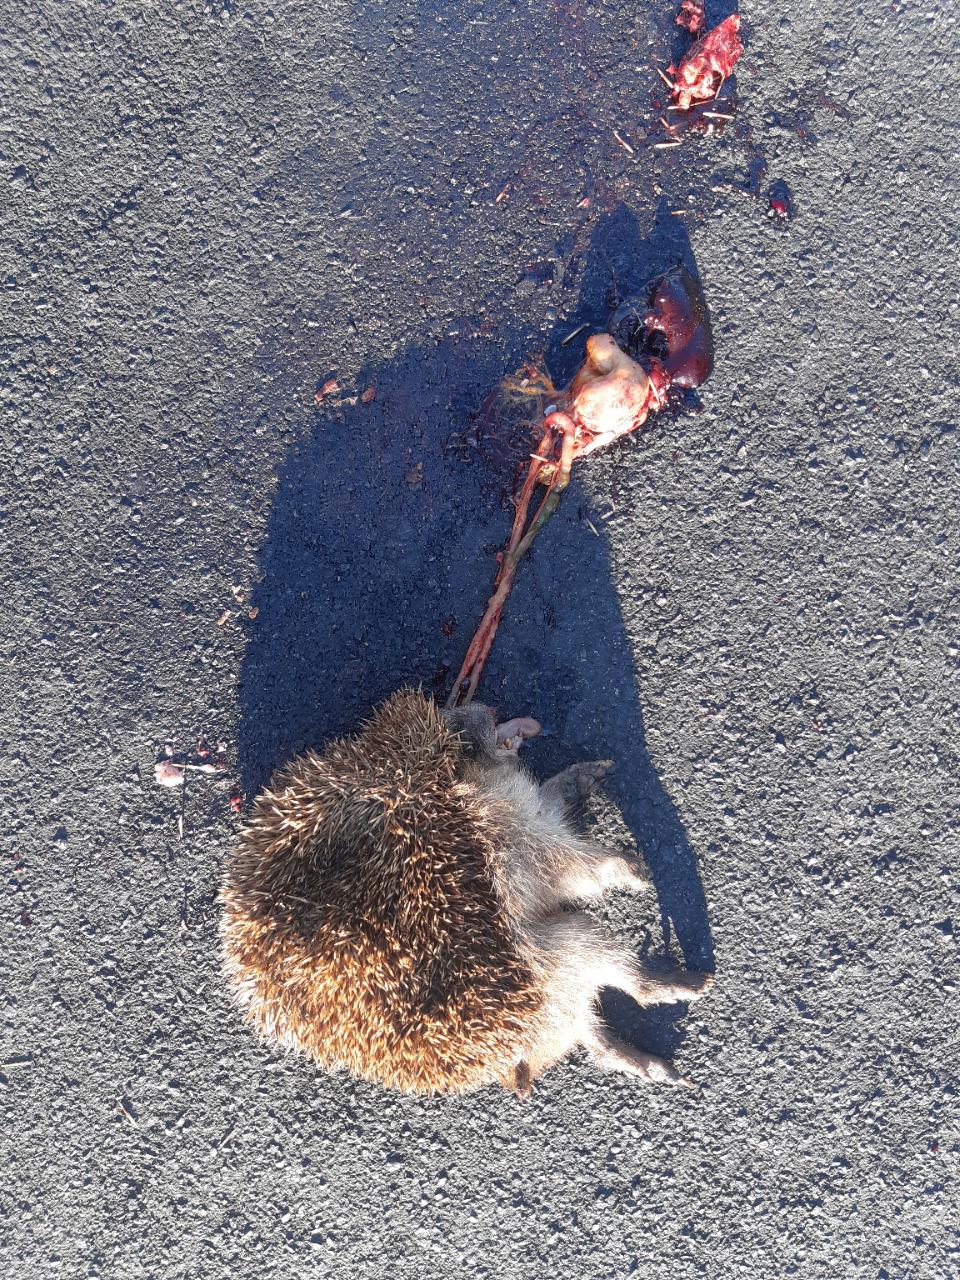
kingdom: Animalia
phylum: Chordata
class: Mammalia
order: Erinaceomorpha
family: Erinaceidae
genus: Erinaceus
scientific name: Erinaceus
